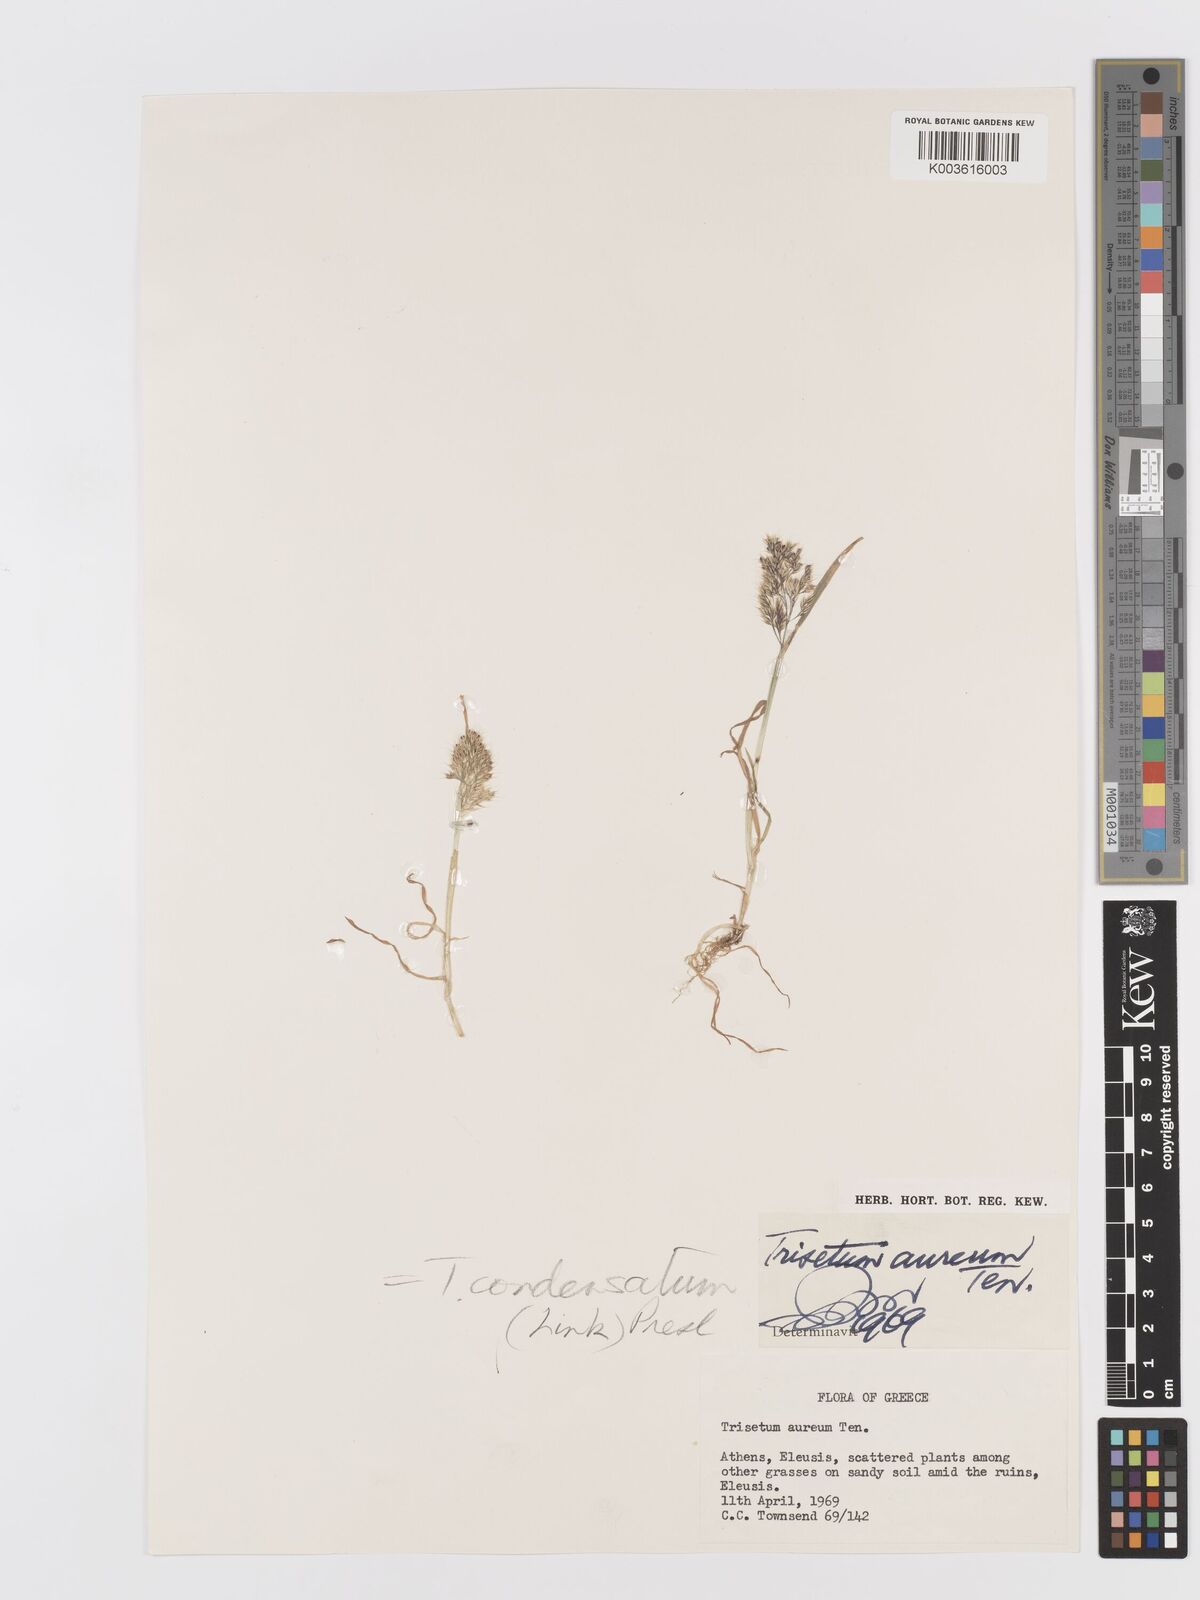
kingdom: Plantae
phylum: Tracheophyta
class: Liliopsida
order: Poales
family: Poaceae
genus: Trisetaria
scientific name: Trisetaria aurea
